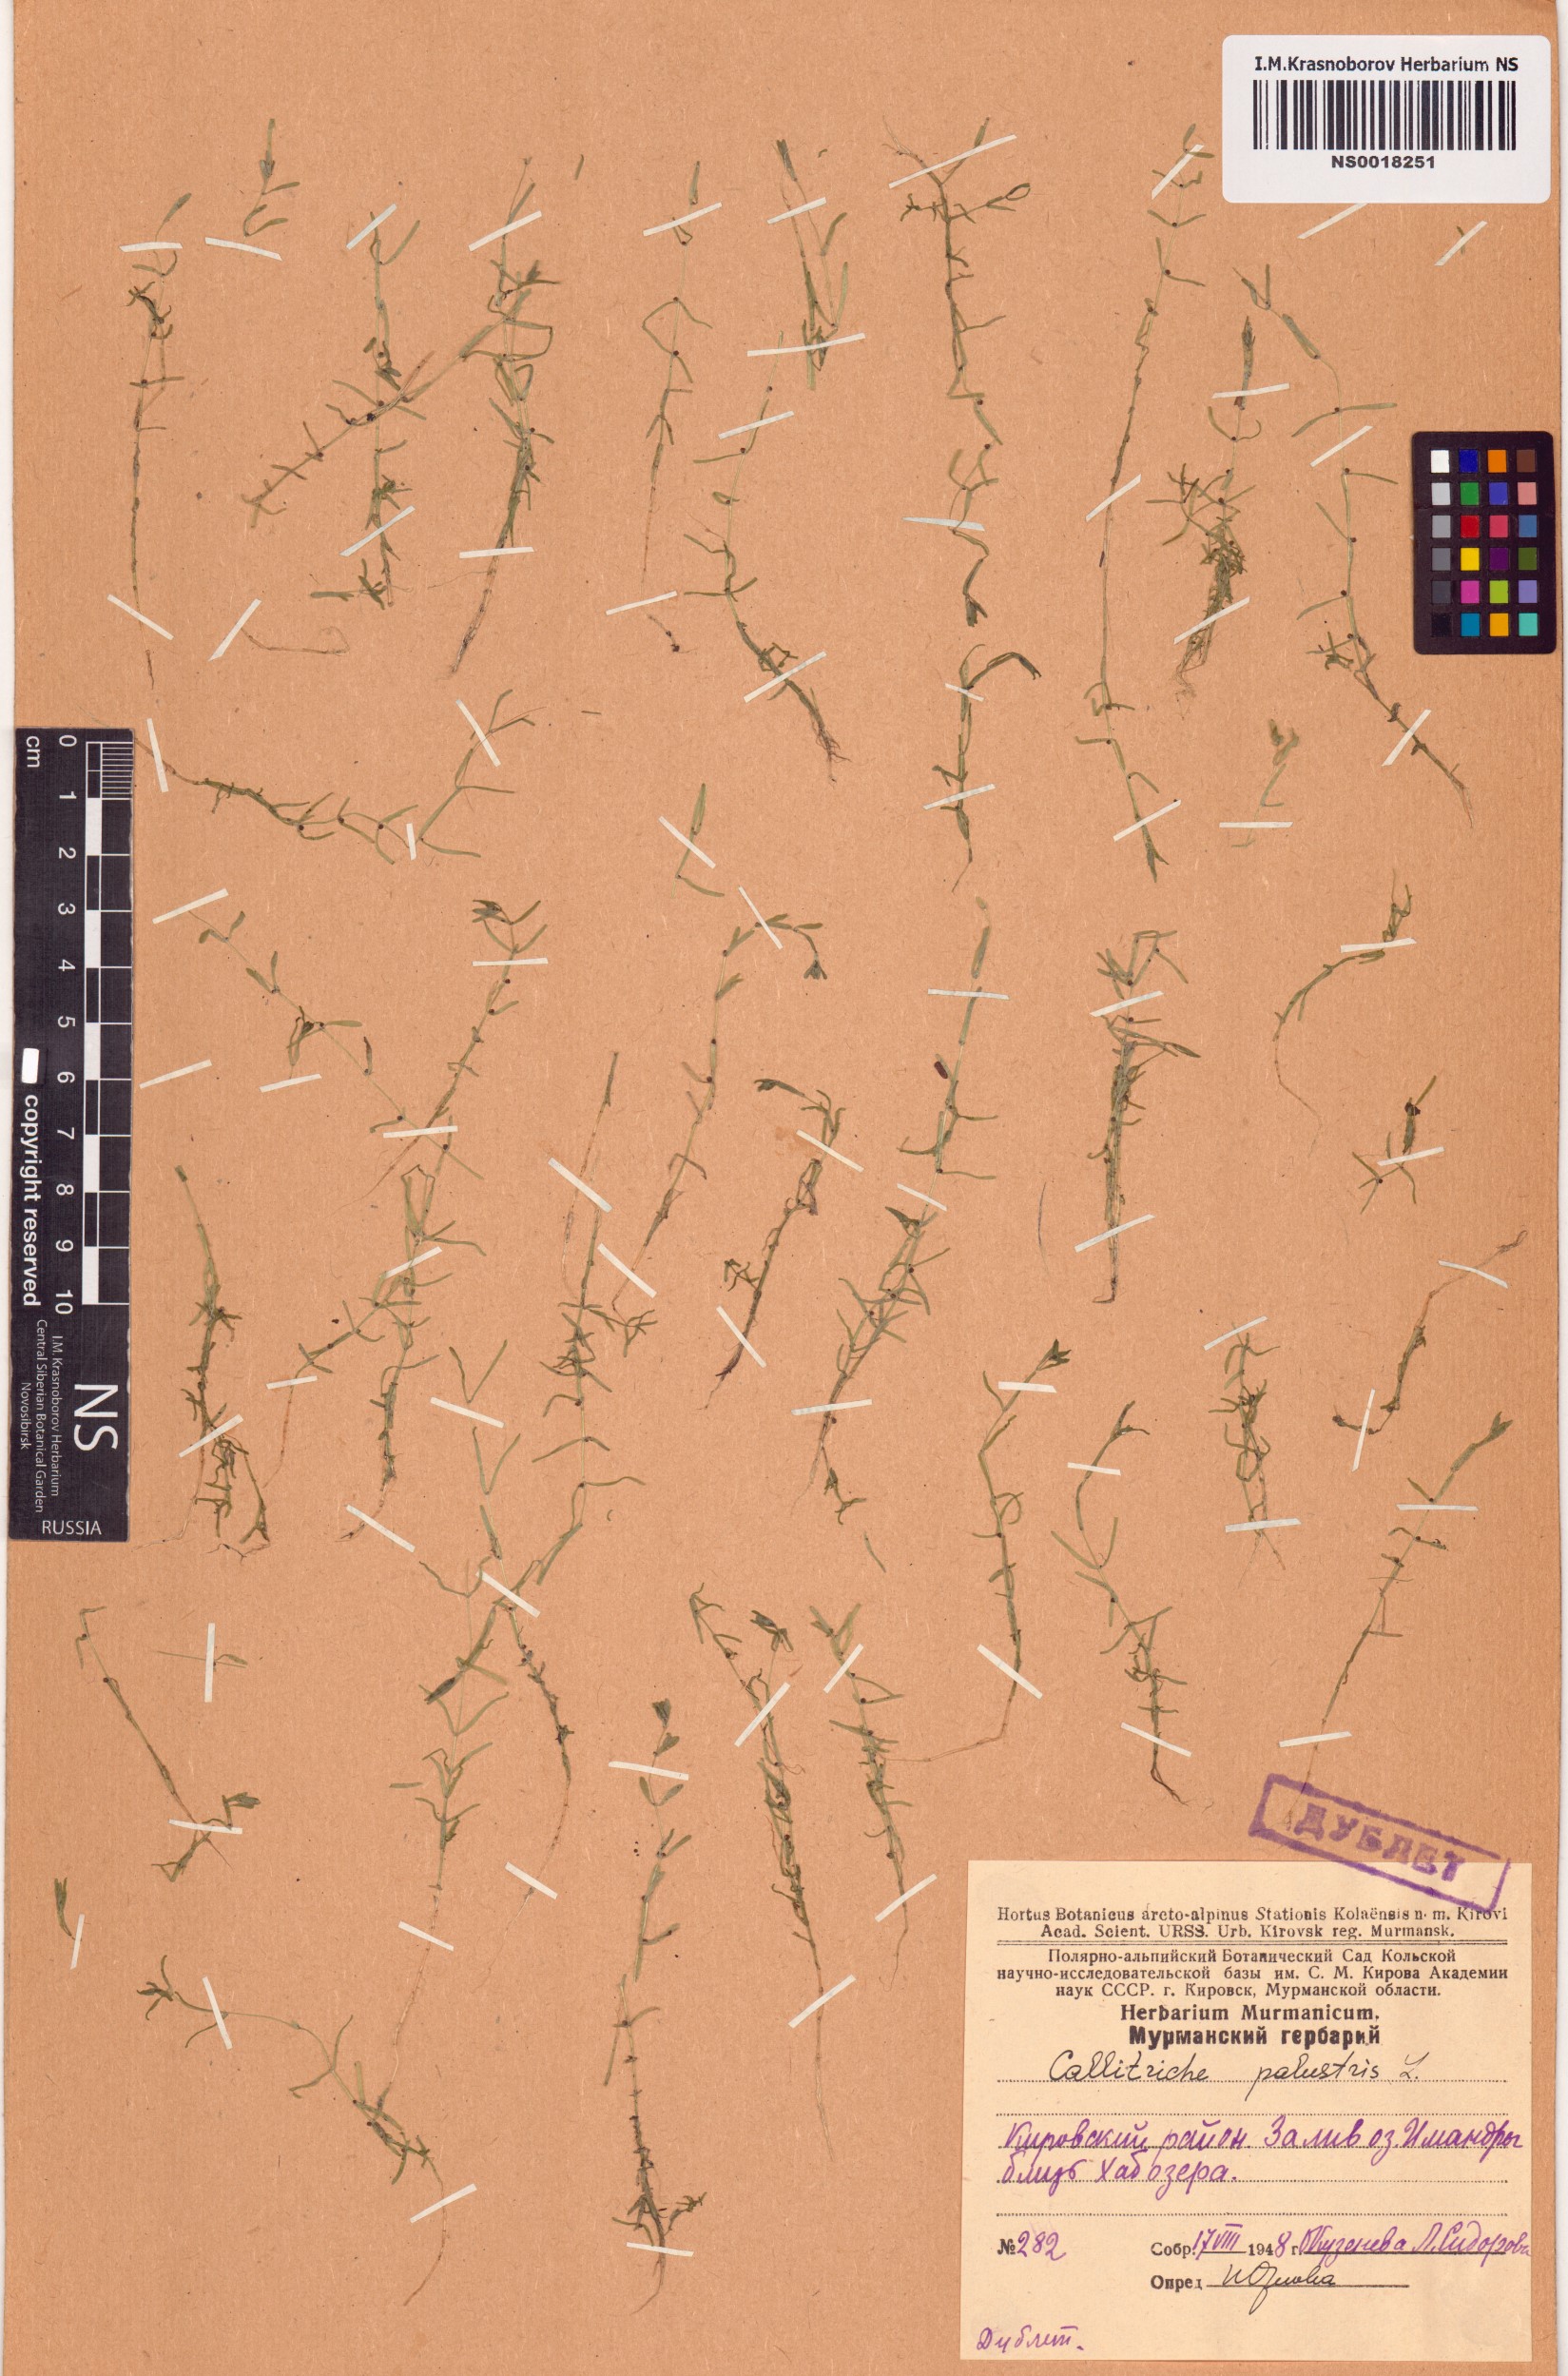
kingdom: Plantae
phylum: Tracheophyta
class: Magnoliopsida
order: Lamiales
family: Plantaginaceae
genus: Callitriche
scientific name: Callitriche palustris
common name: Spring water-starwort
